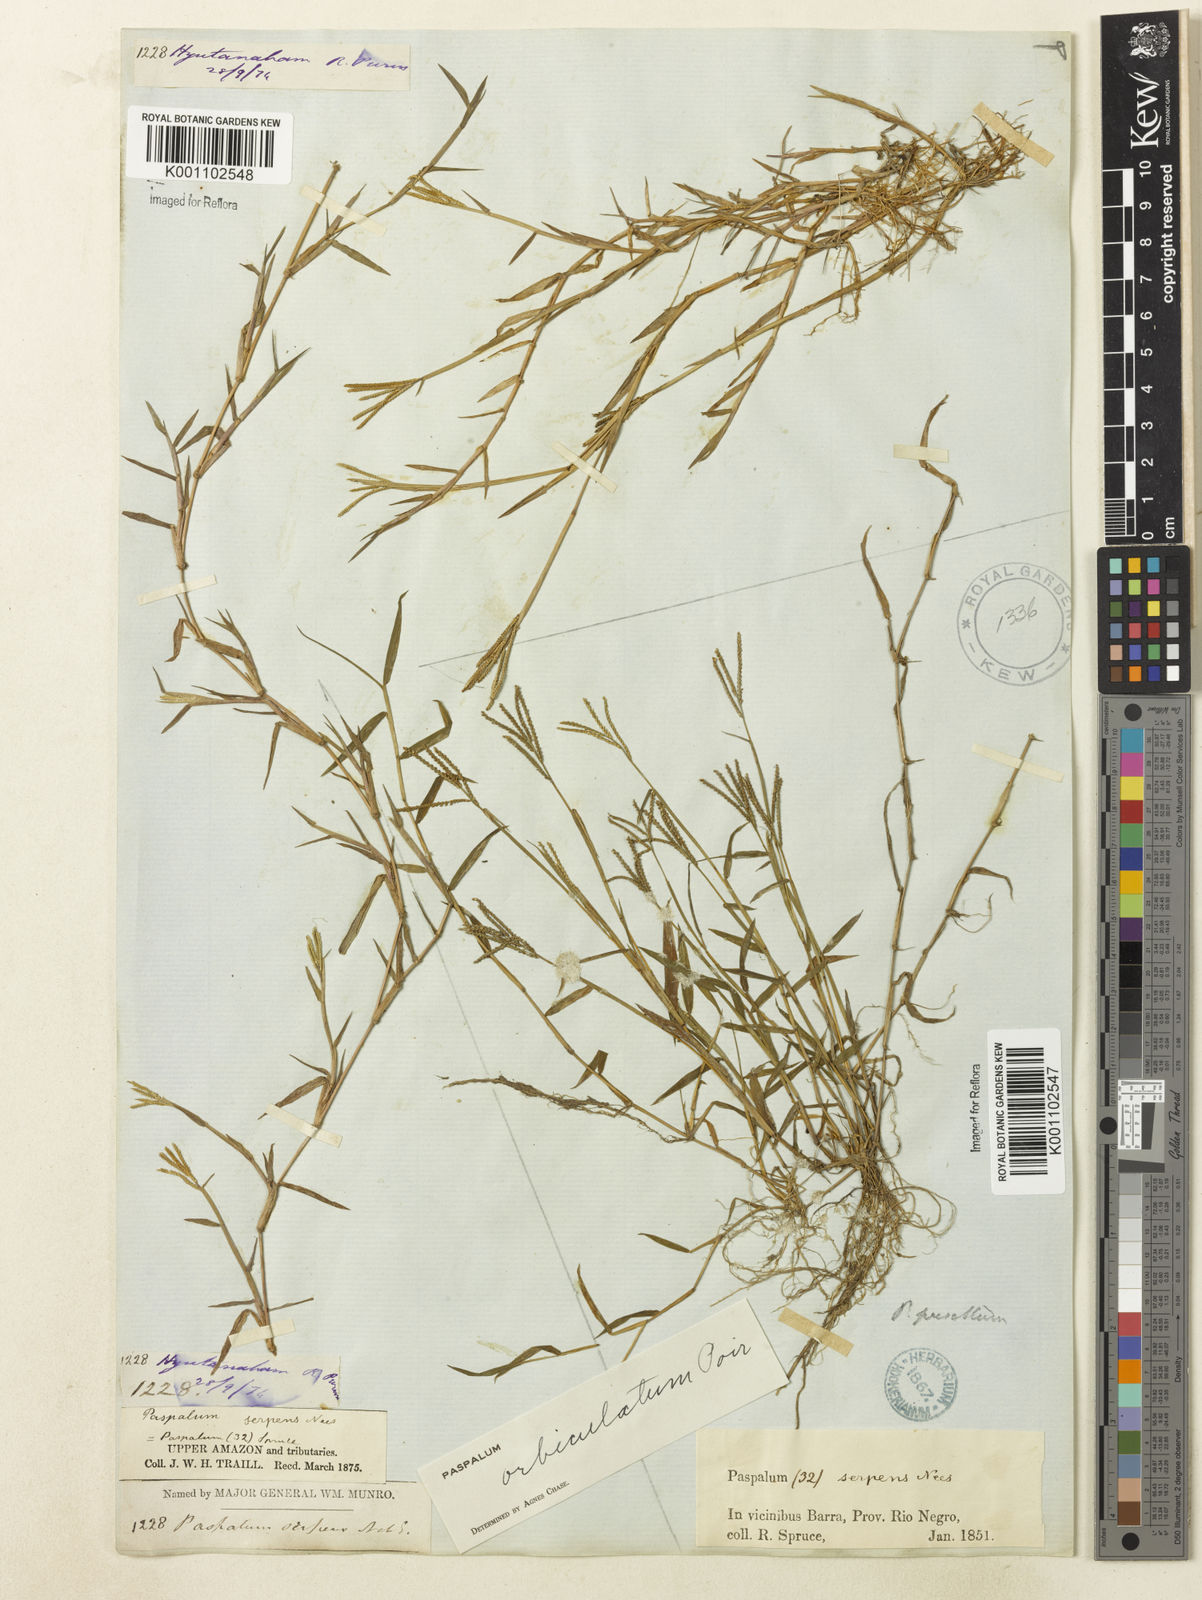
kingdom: Plantae
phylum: Tracheophyta
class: Liliopsida
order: Poales
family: Poaceae
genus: Paspalum
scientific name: Paspalum orbiculatum
